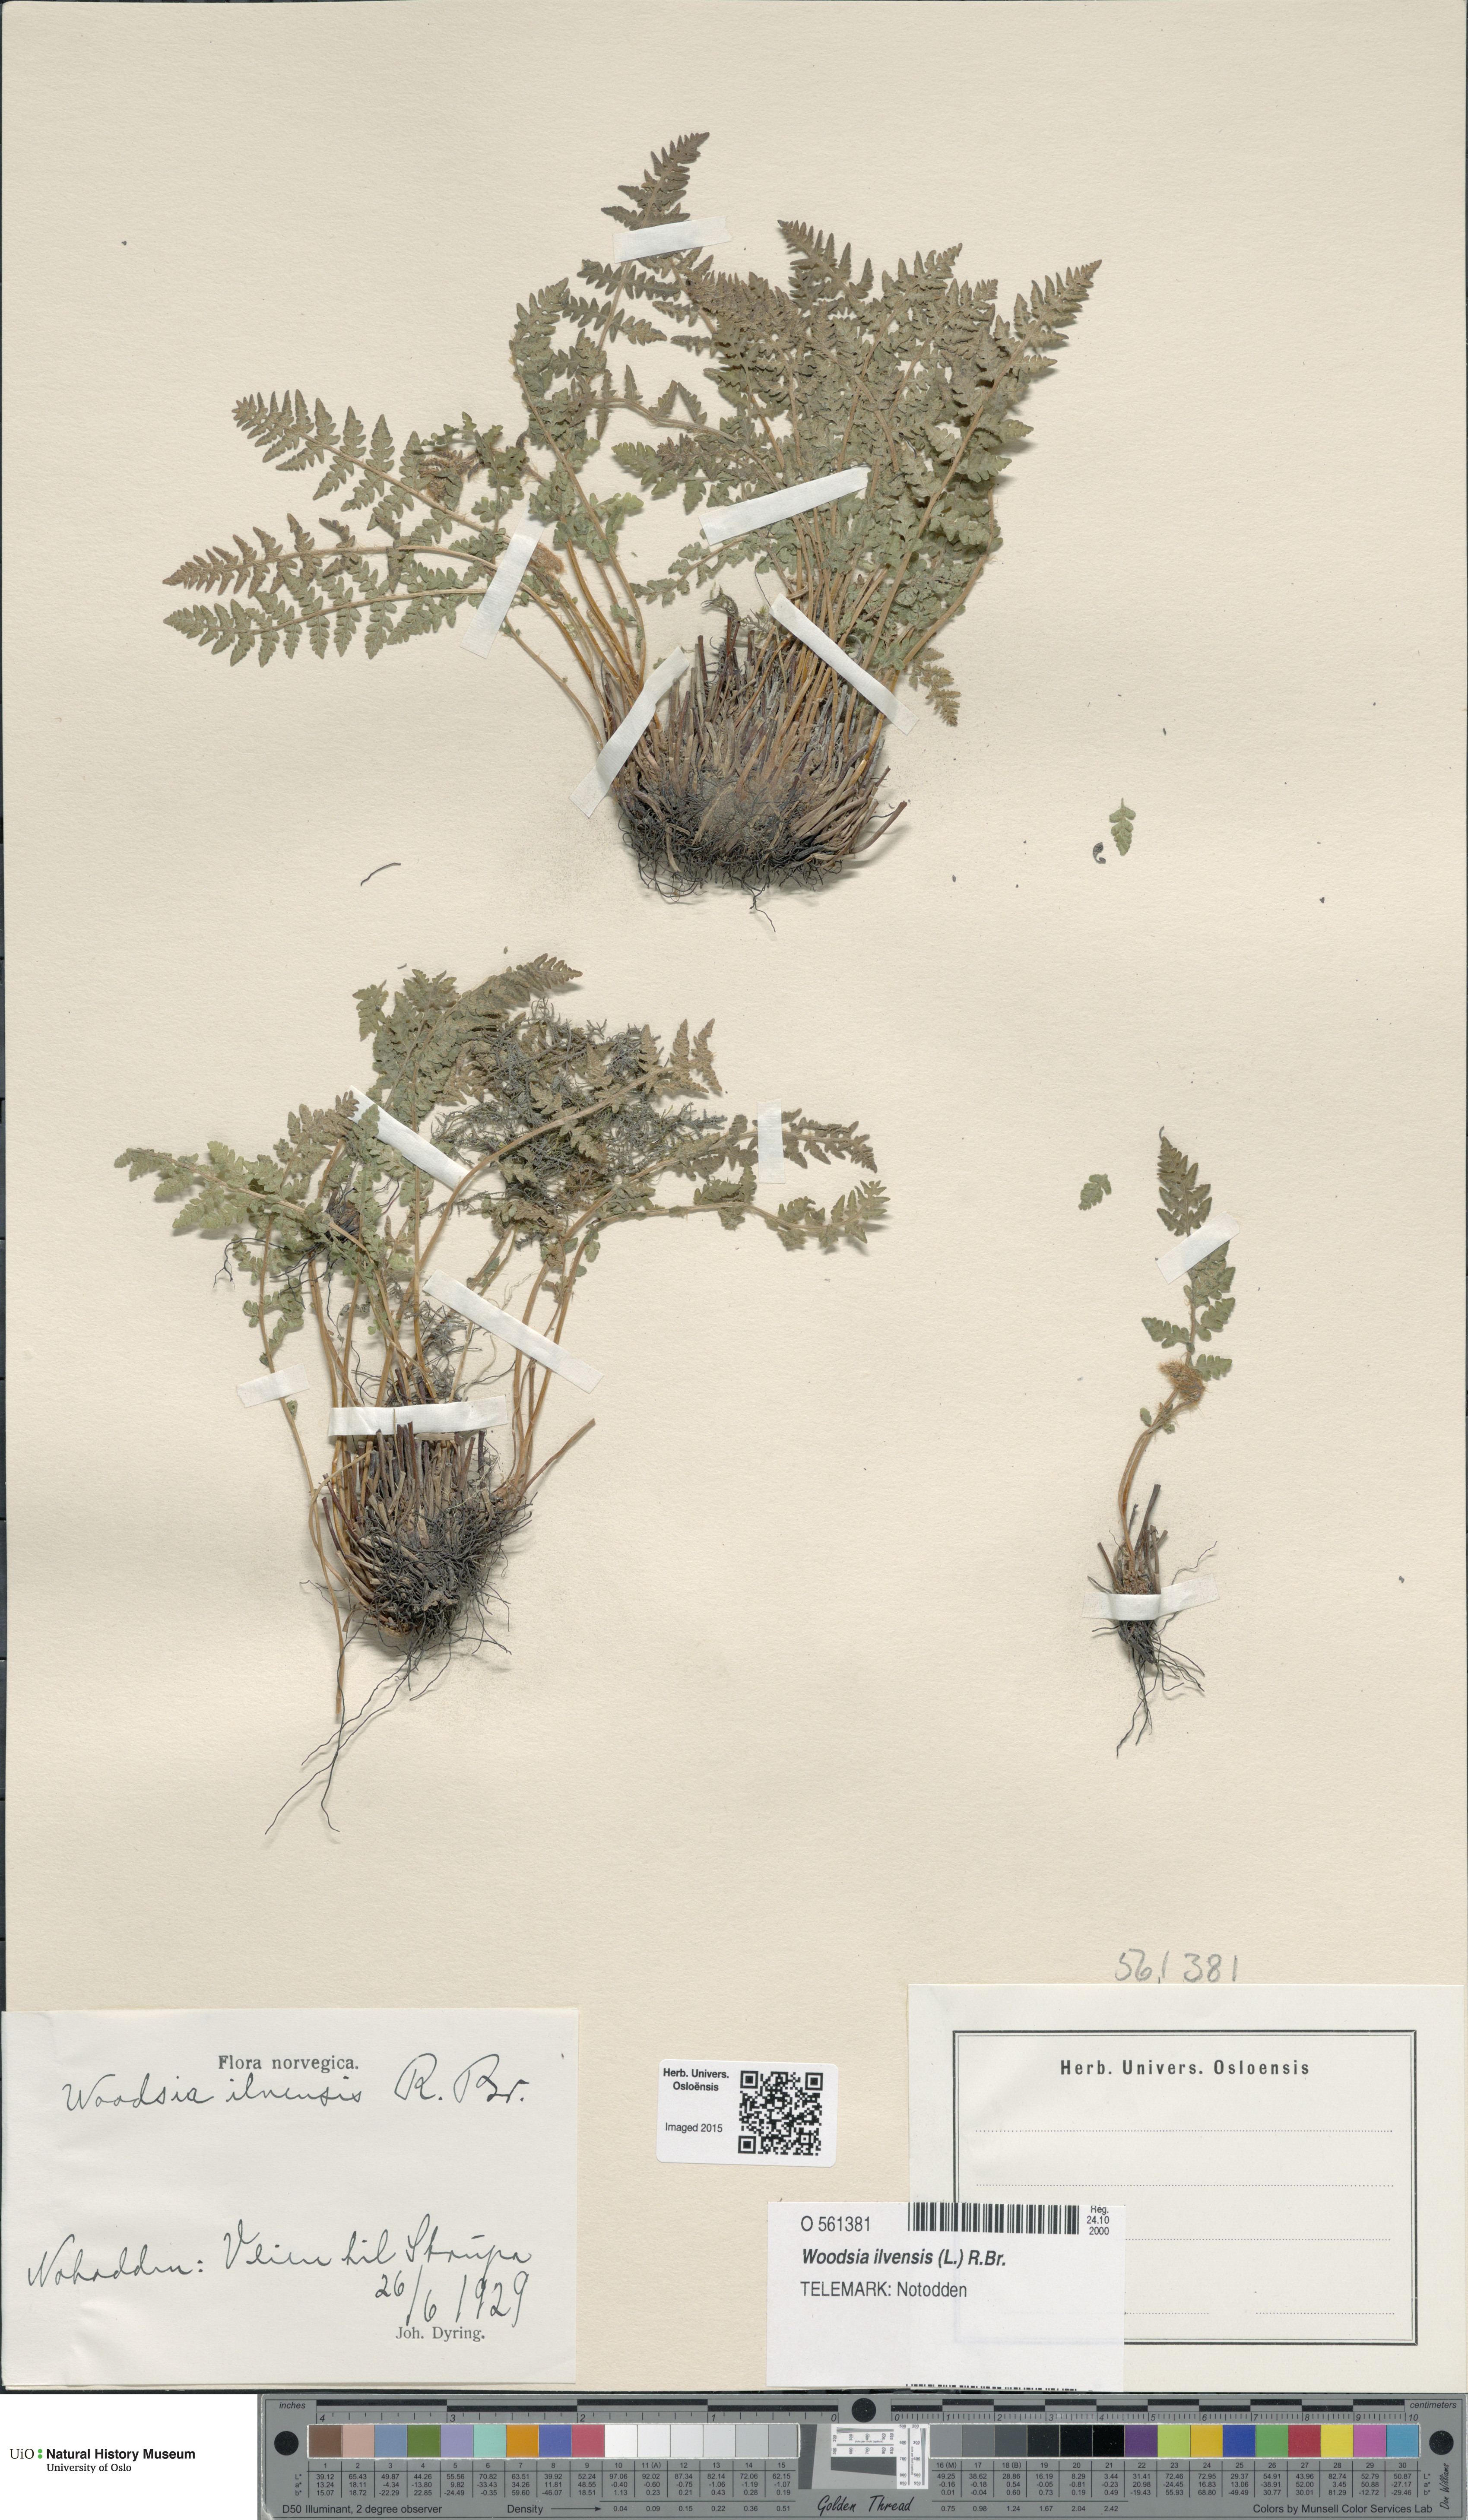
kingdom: Plantae
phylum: Tracheophyta
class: Polypodiopsida
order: Polypodiales
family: Woodsiaceae
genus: Woodsia
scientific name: Woodsia ilvensis
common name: Fragrant woodsia
